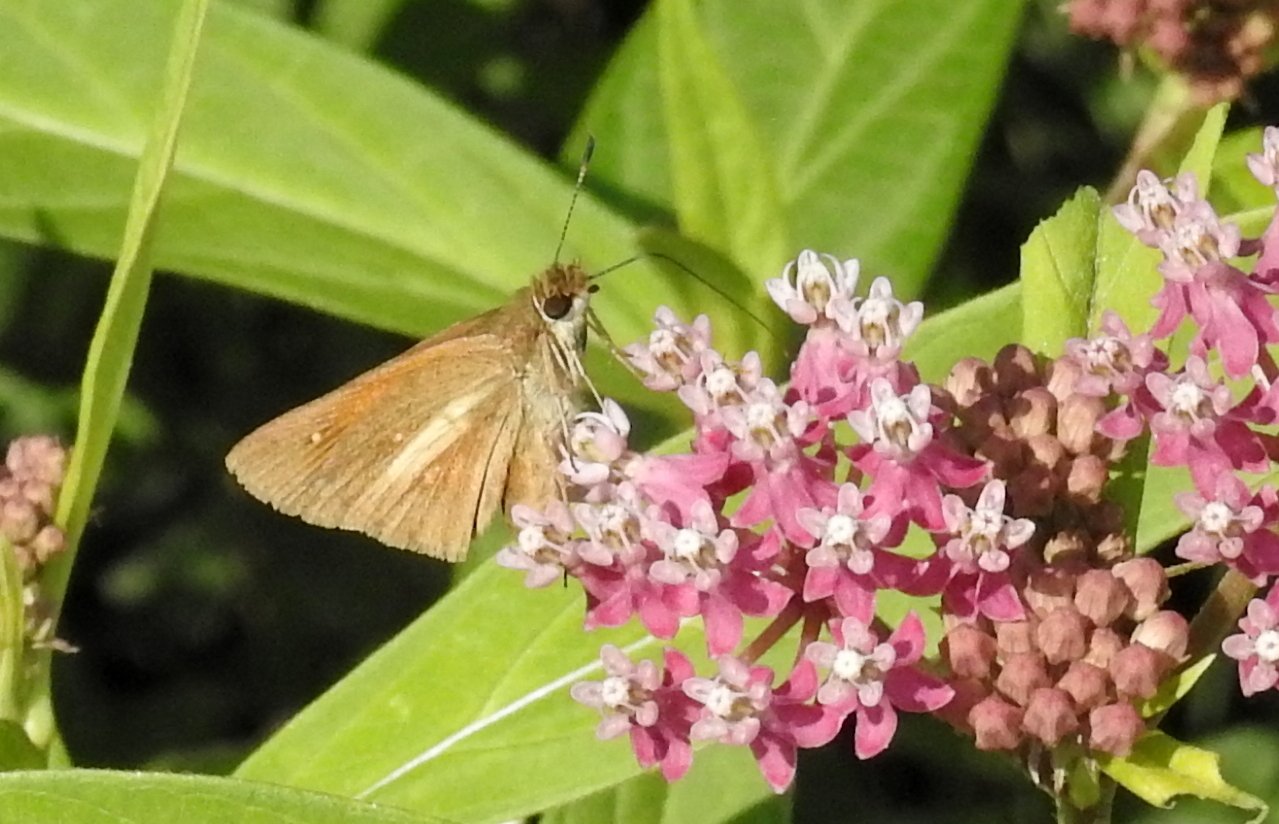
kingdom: Animalia
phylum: Arthropoda
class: Insecta
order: Lepidoptera
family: Hesperiidae
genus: Poanes
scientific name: Poanes viator
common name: Broad-winged Skipper
